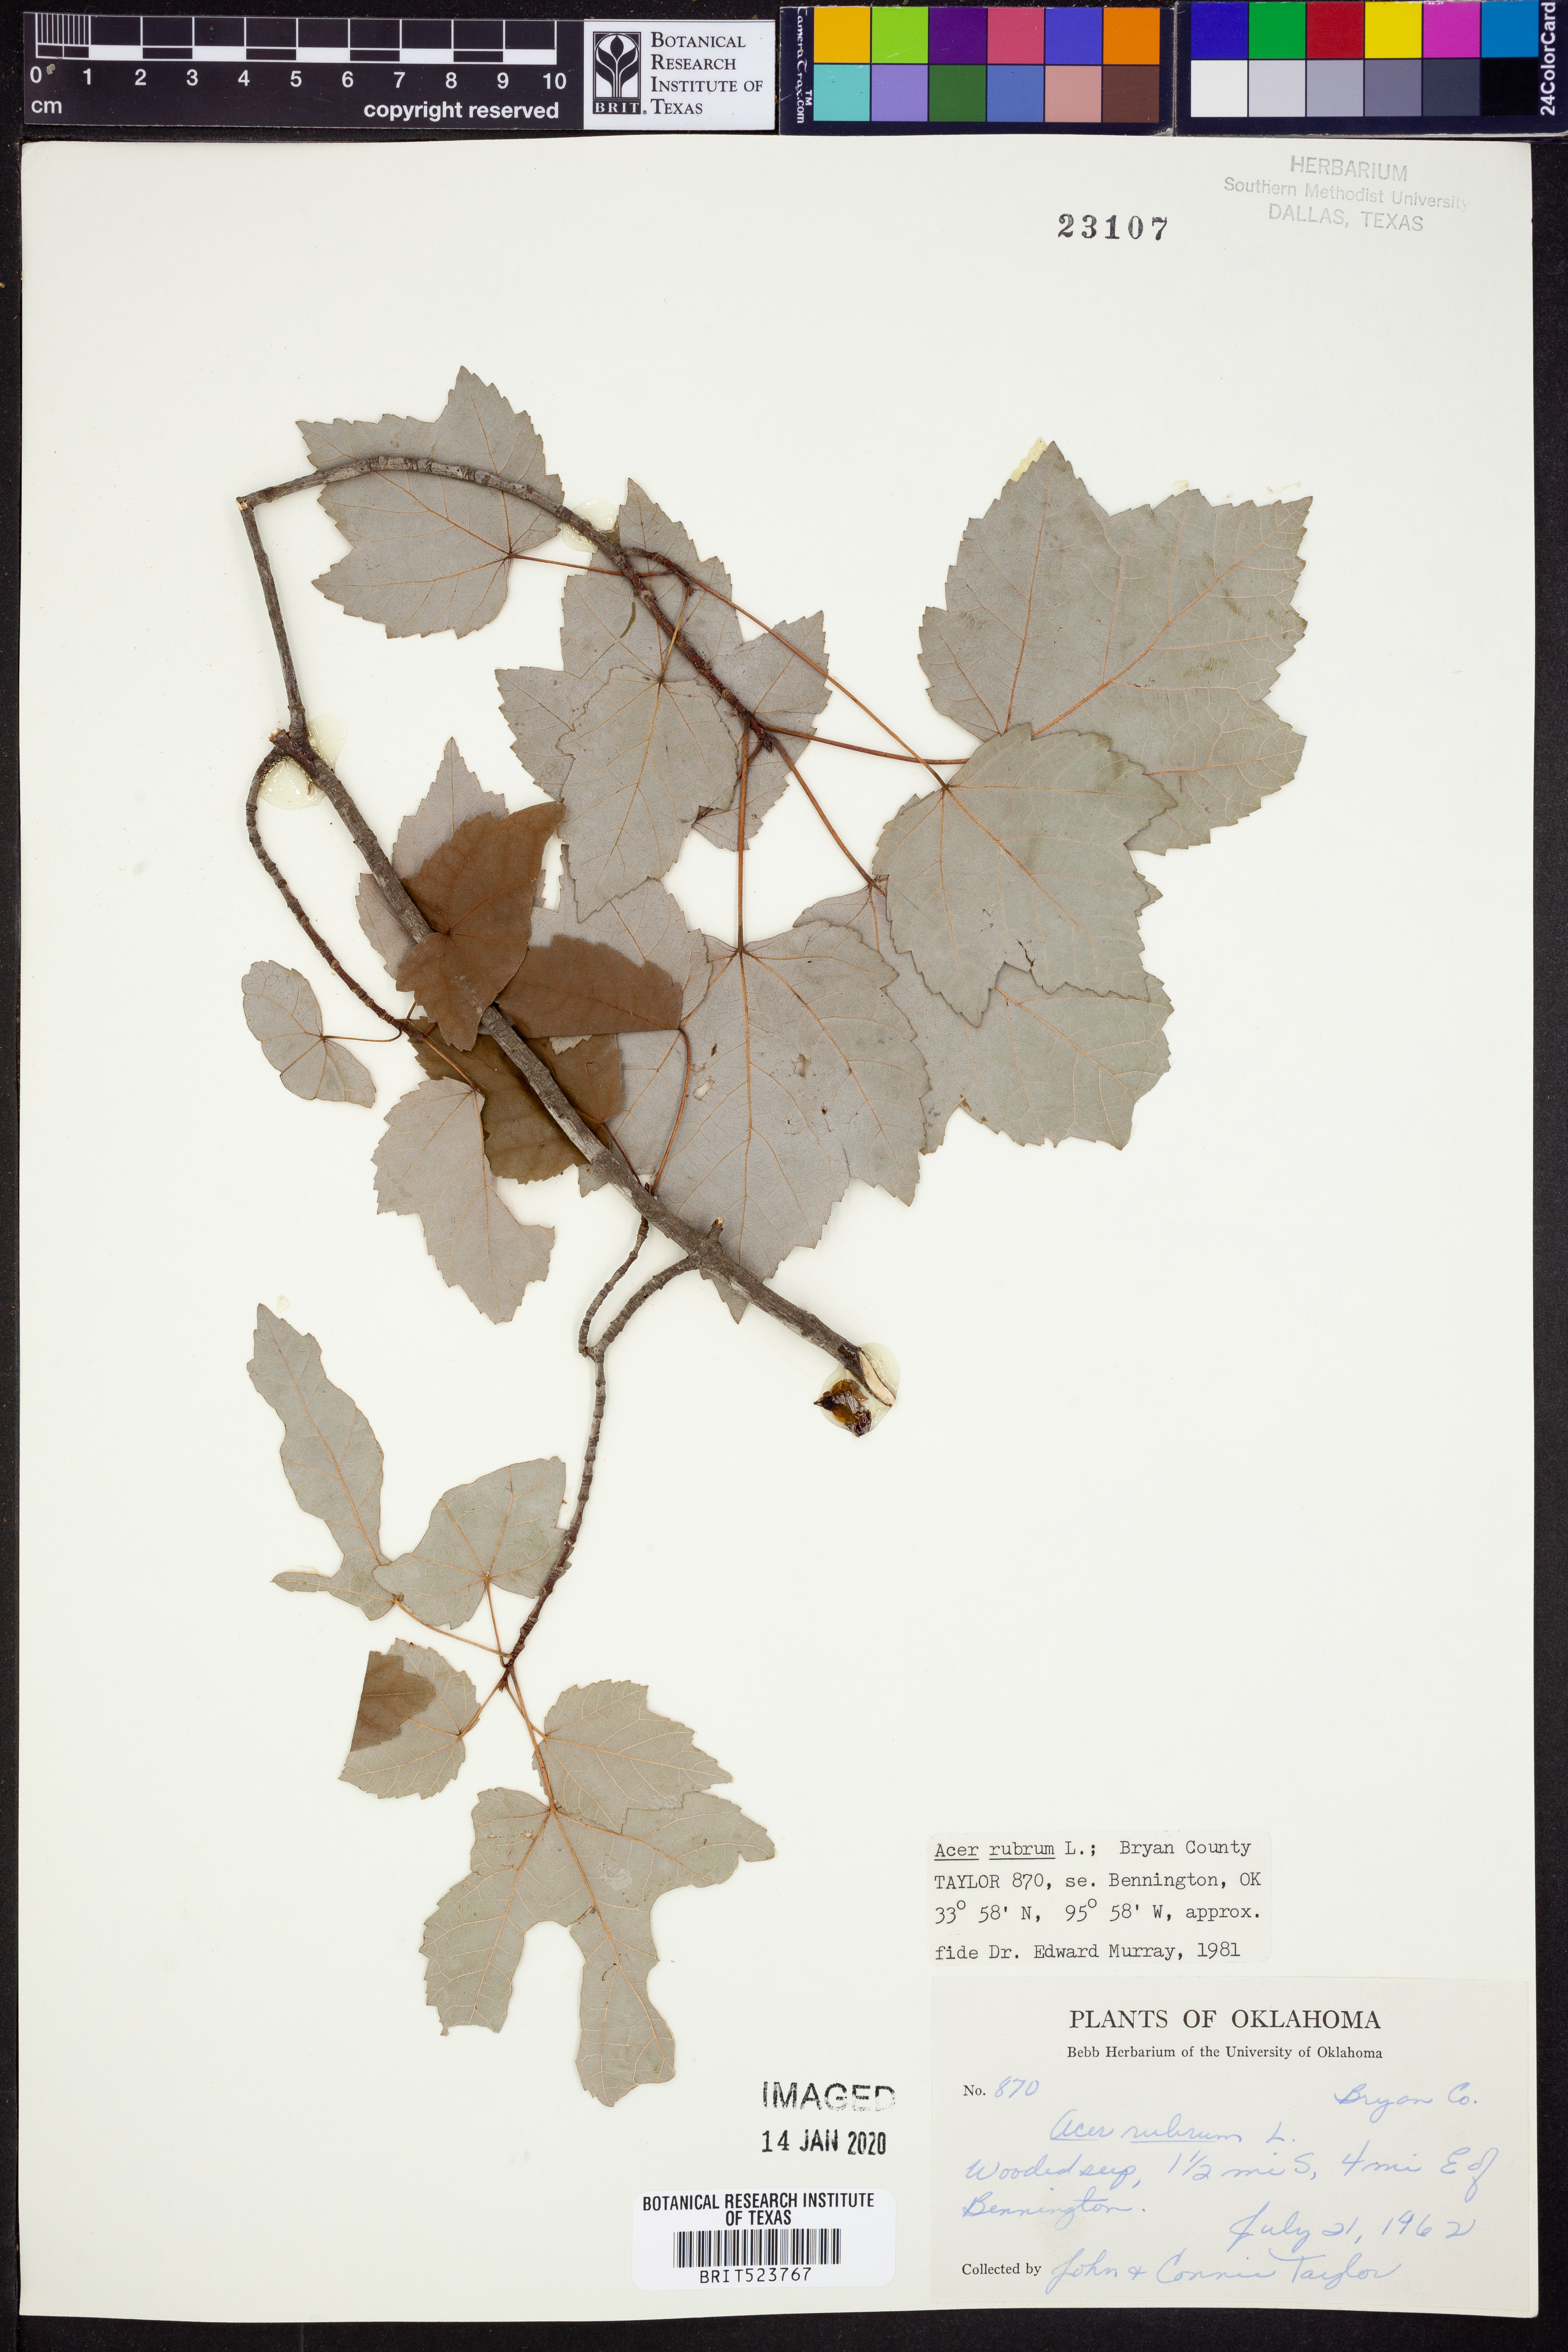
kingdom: Plantae
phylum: Tracheophyta
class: Magnoliopsida
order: Sapindales
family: Sapindaceae
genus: Acer
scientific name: Acer rubrum
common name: Red maple
